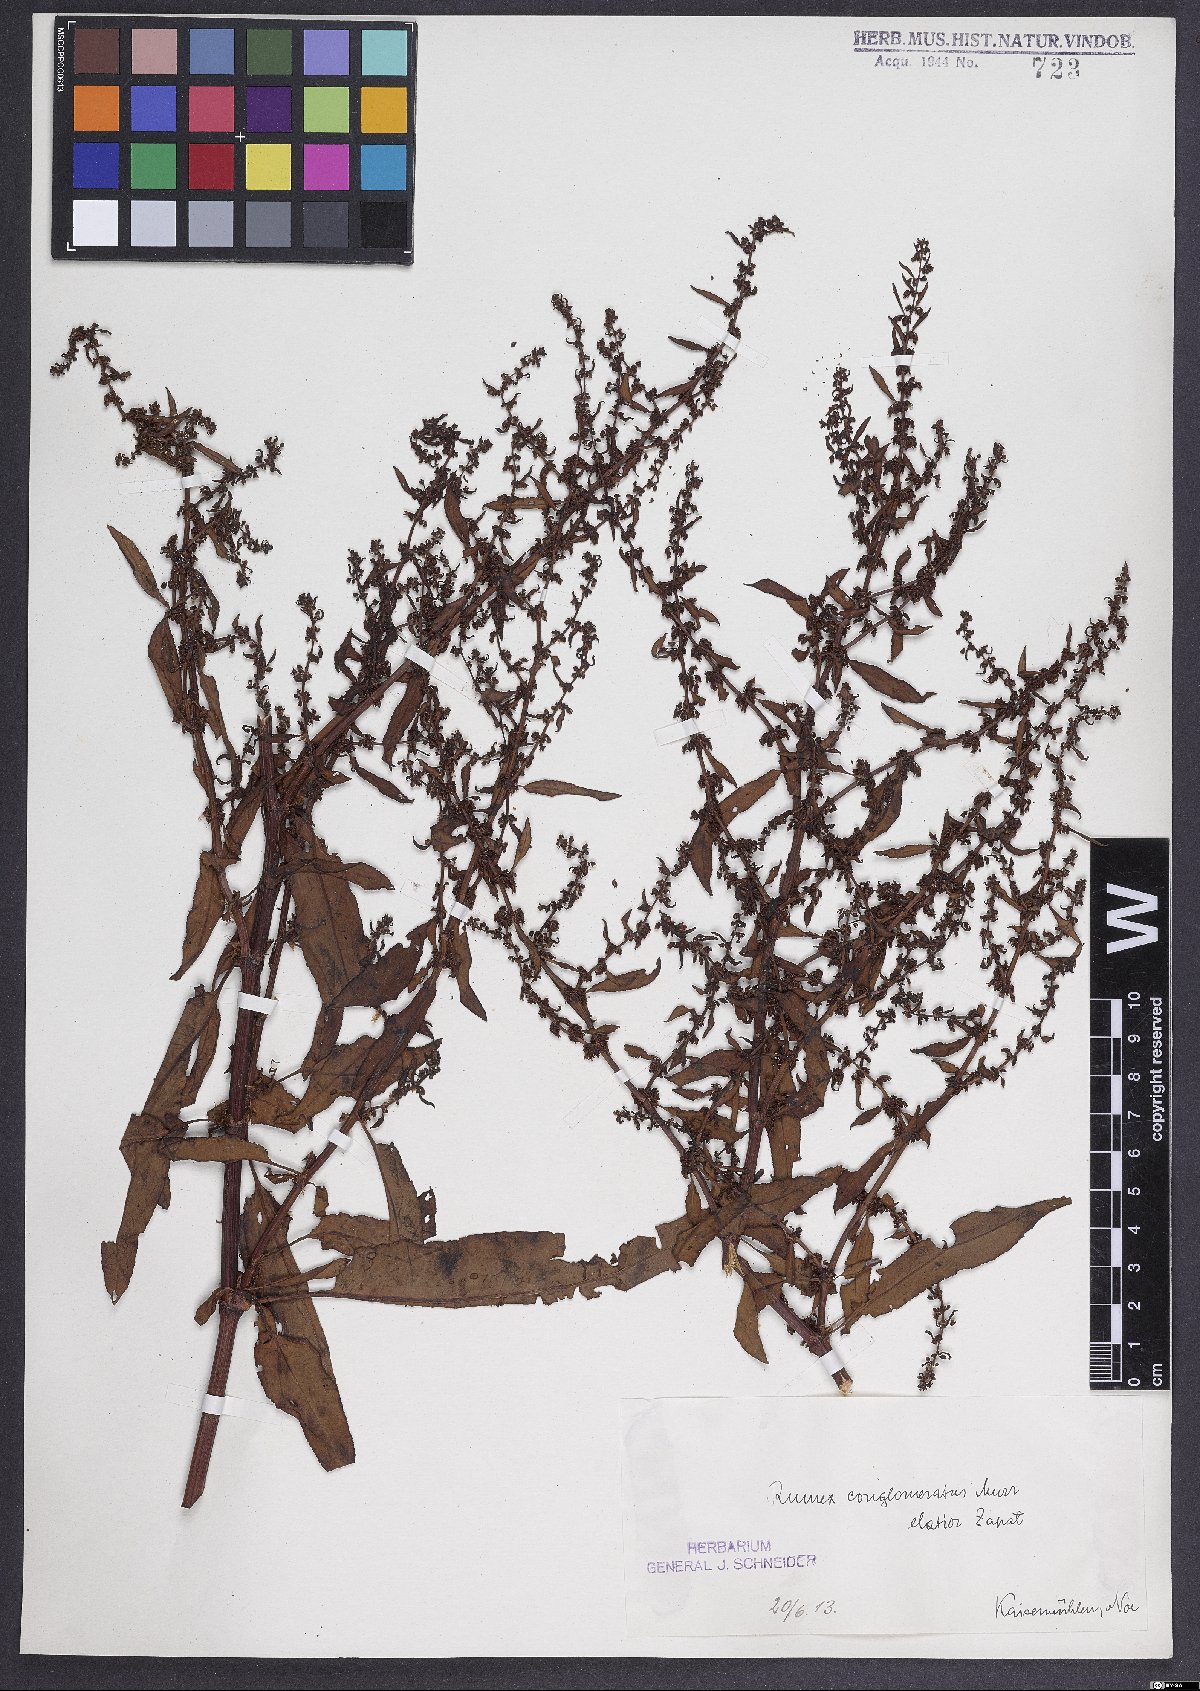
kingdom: Plantae
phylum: Tracheophyta
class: Magnoliopsida
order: Caryophyllales
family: Polygonaceae
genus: Rumex
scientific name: Rumex conglomeratus
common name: Clustered dock
